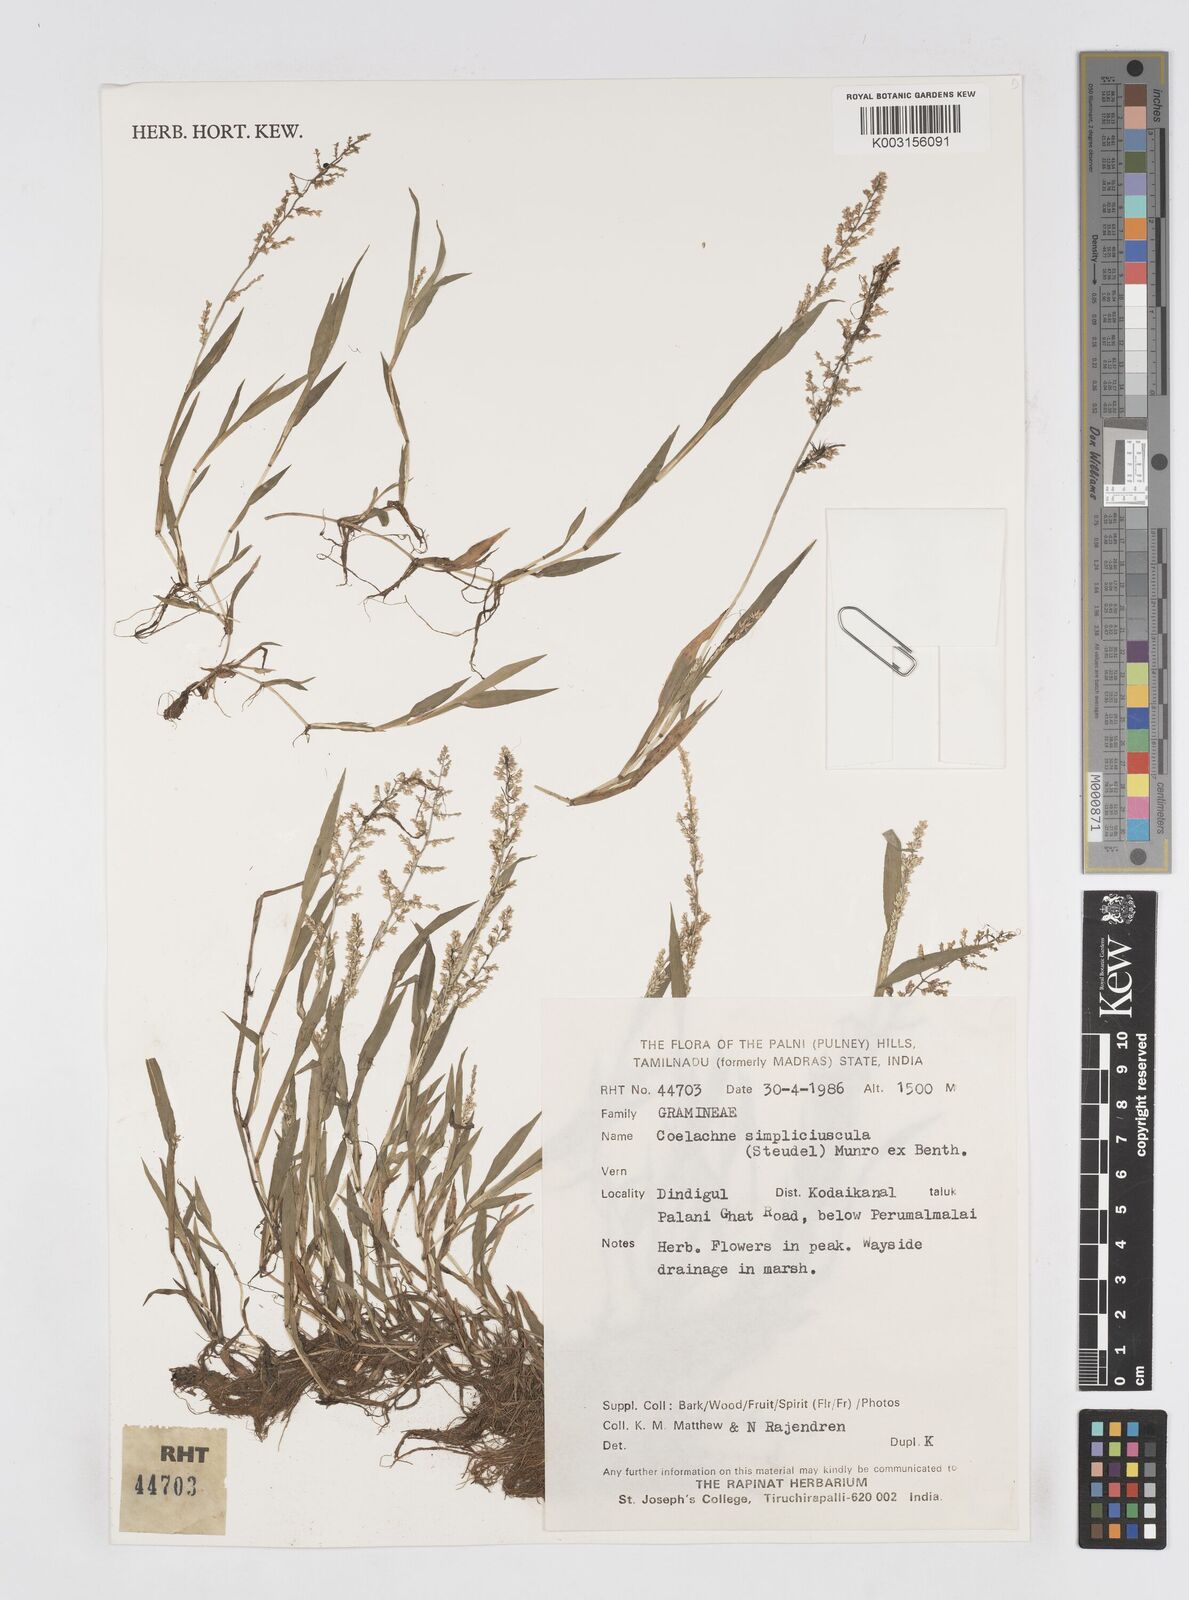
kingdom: Plantae
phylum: Tracheophyta
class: Liliopsida
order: Poales
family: Poaceae
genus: Coelachne
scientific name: Coelachne simpliciuscula
